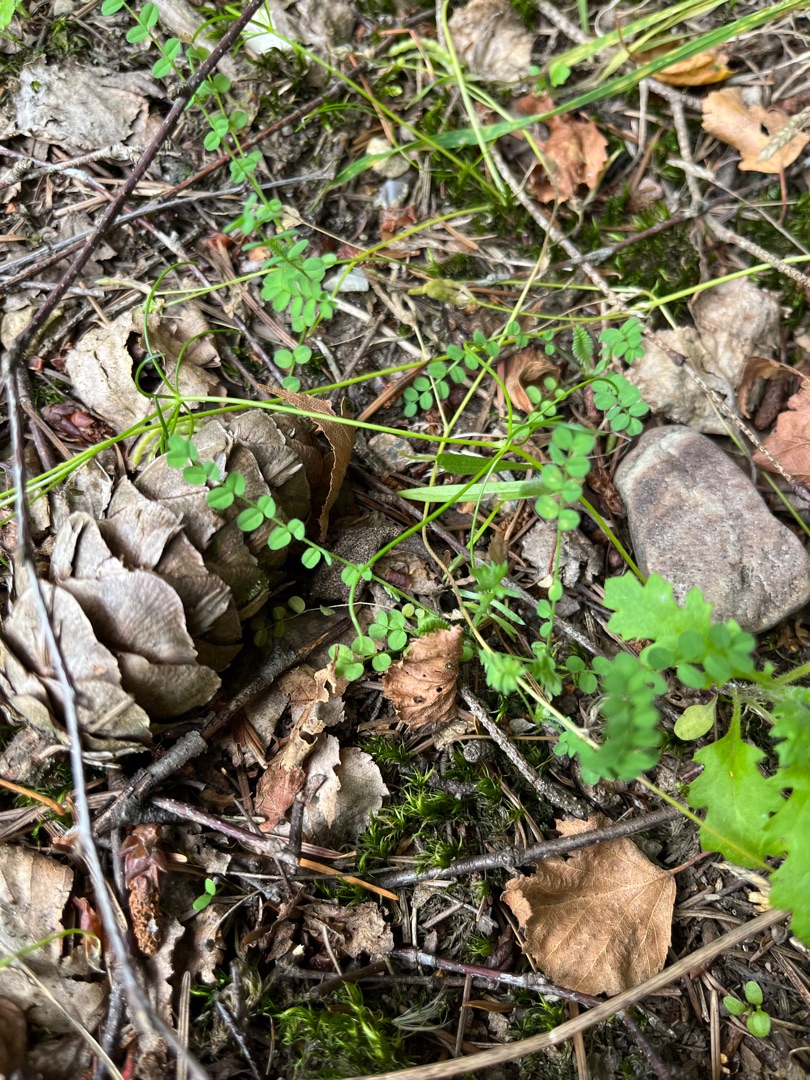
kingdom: Plantae
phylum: Tracheophyta
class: Magnoliopsida
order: Fabales
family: Fabaceae
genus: Ornithopus
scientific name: Ornithopus perpusillus
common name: Liden fugleklo
